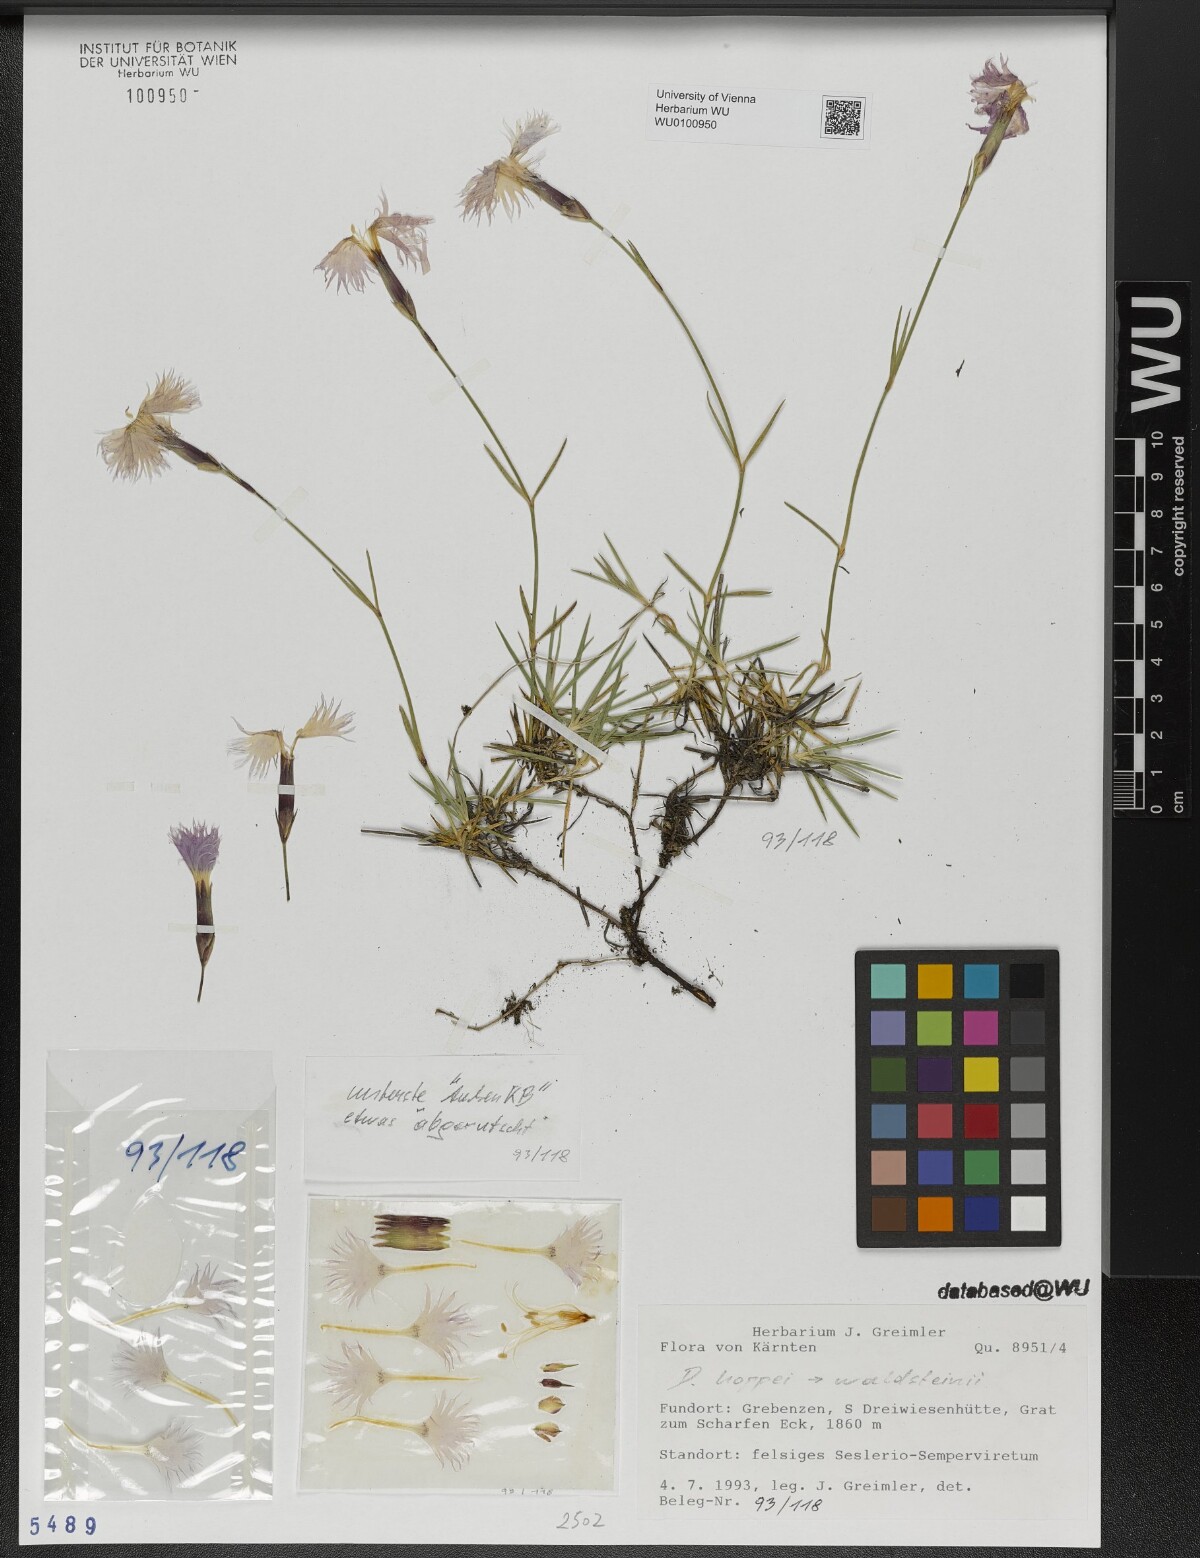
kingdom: Plantae
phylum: Tracheophyta
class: Magnoliopsida
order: Caryophyllales
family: Caryophyllaceae
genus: Dianthus
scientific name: Dianthus plumarius
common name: Pink
